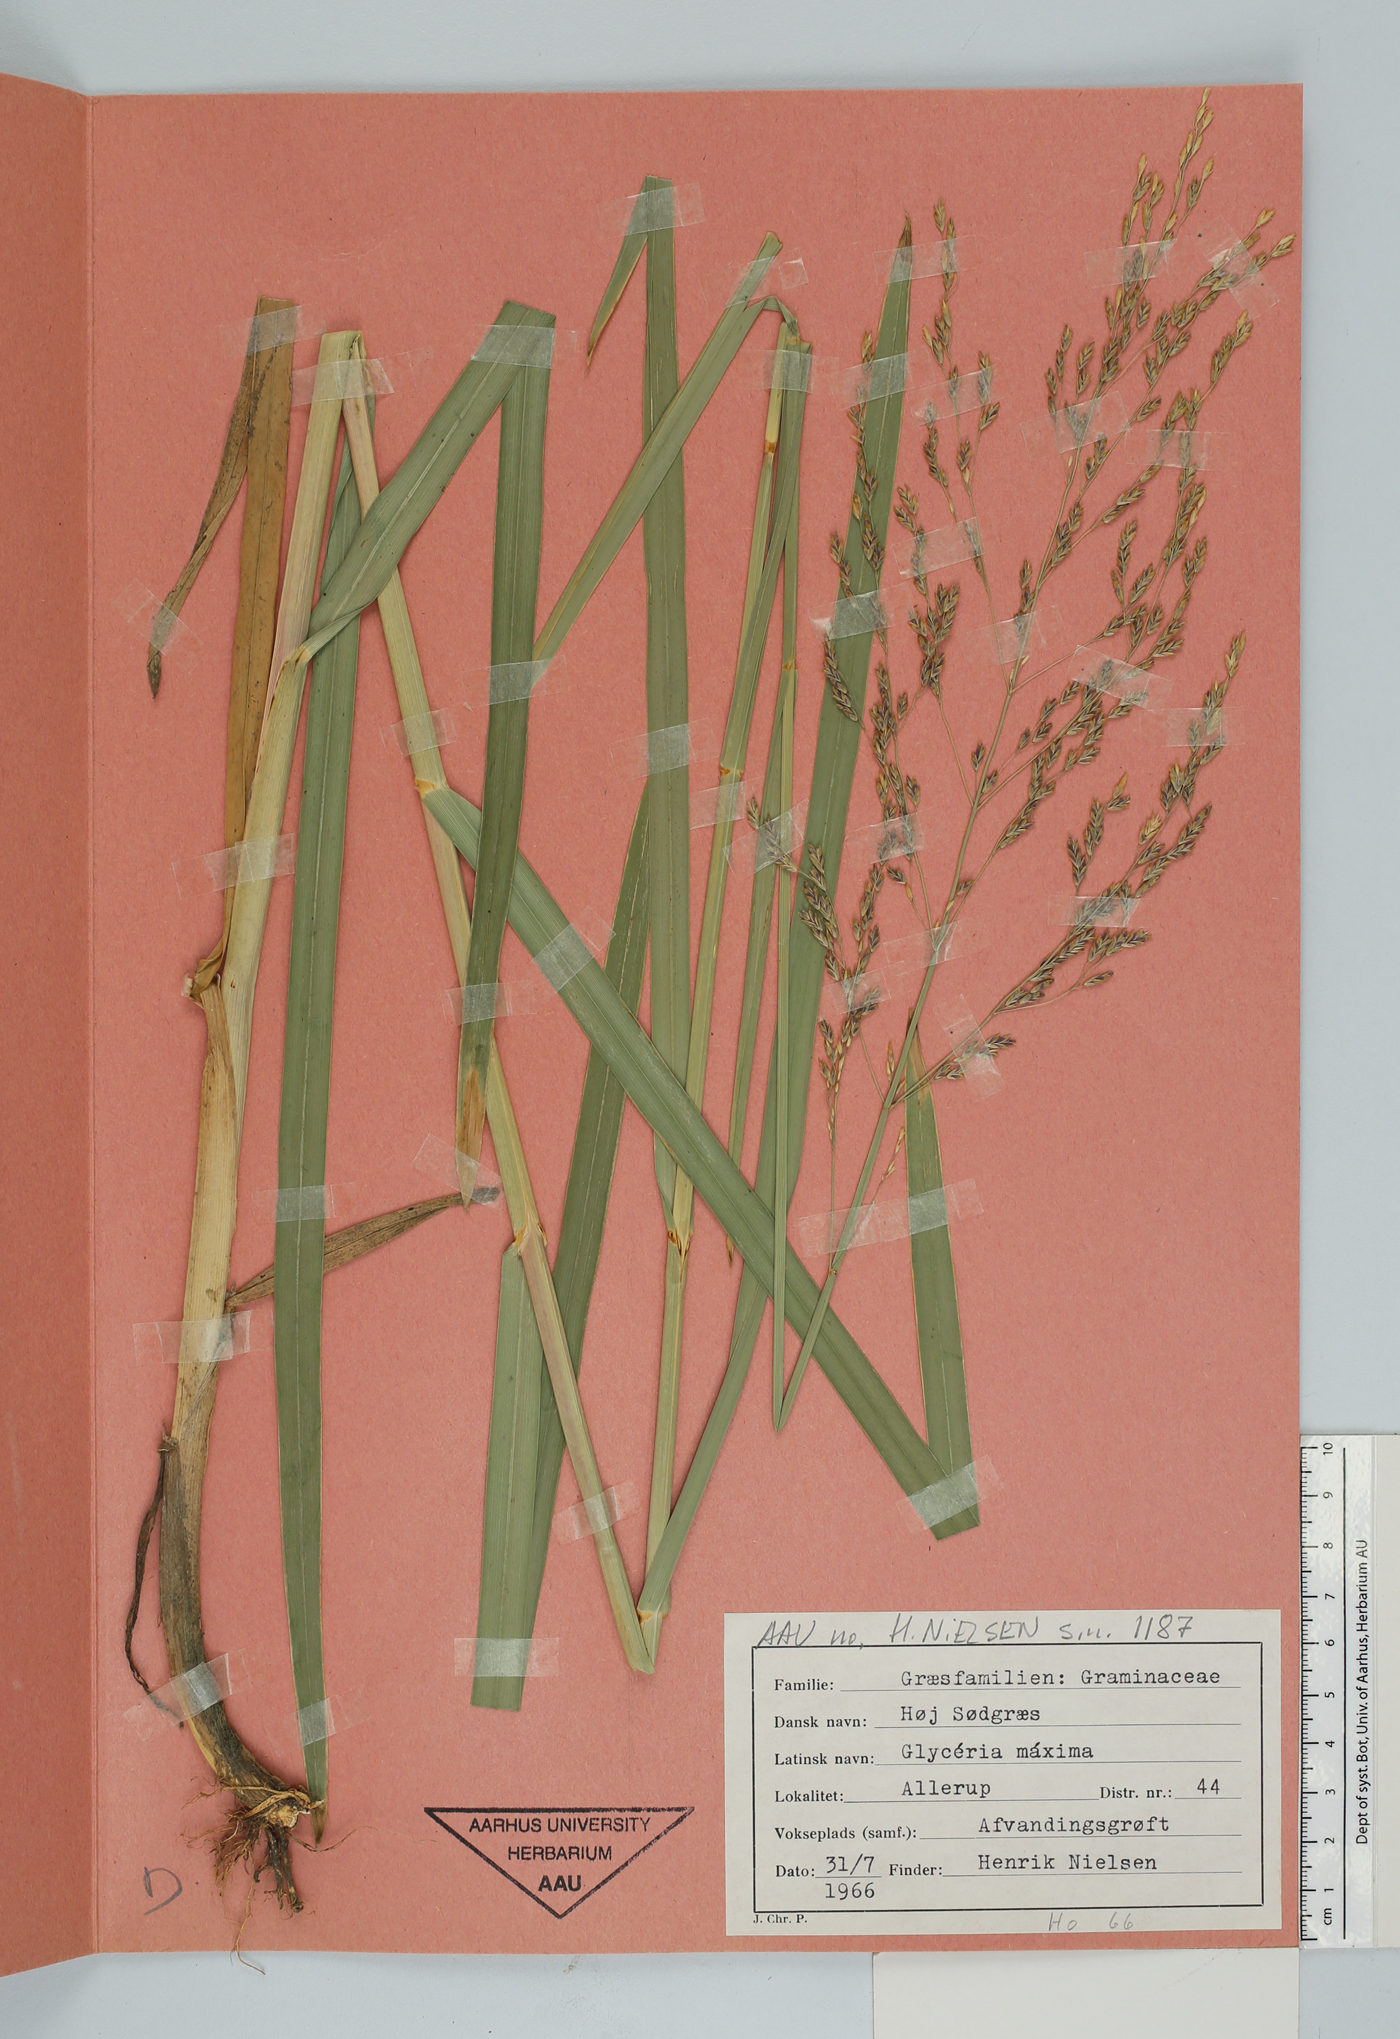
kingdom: Plantae
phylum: Tracheophyta
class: Liliopsida
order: Poales
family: Poaceae
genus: Glyceria
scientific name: Glyceria maxima
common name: Reed mannagrass
